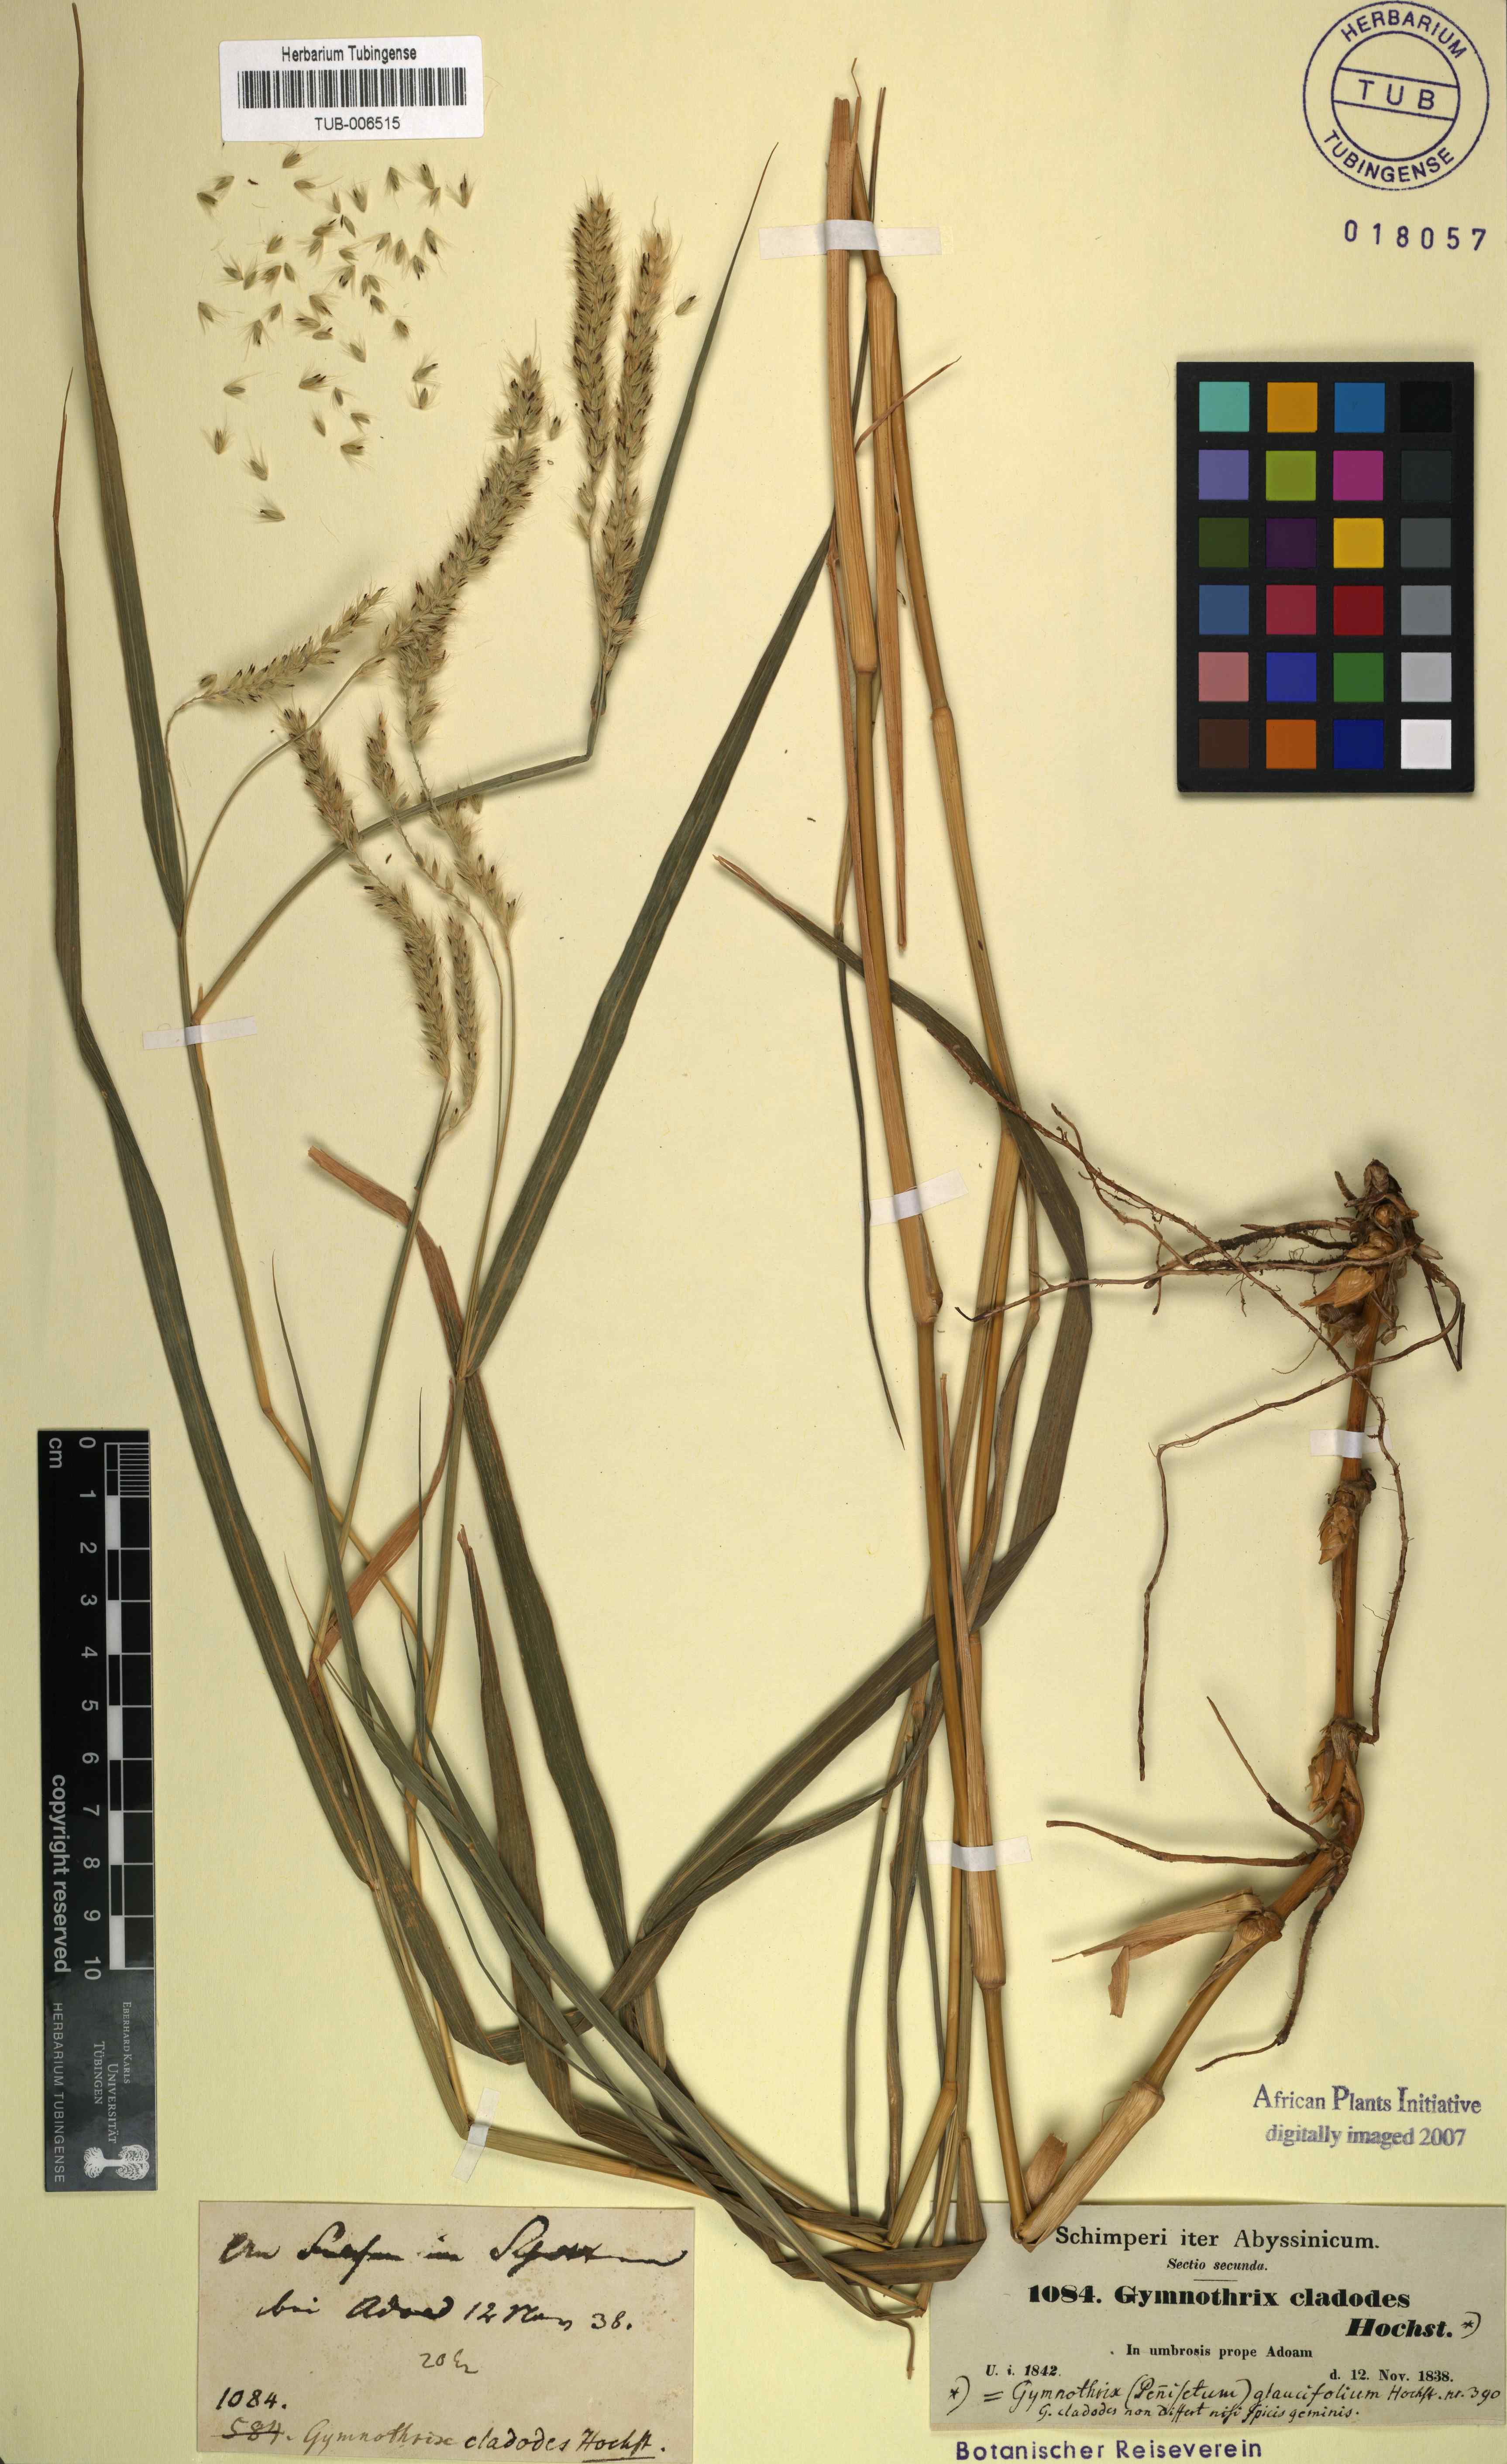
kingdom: Plantae
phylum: Tracheophyta
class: Liliopsida
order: Poales
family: Poaceae
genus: Cenchrus
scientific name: Cenchrus glaucifolius
